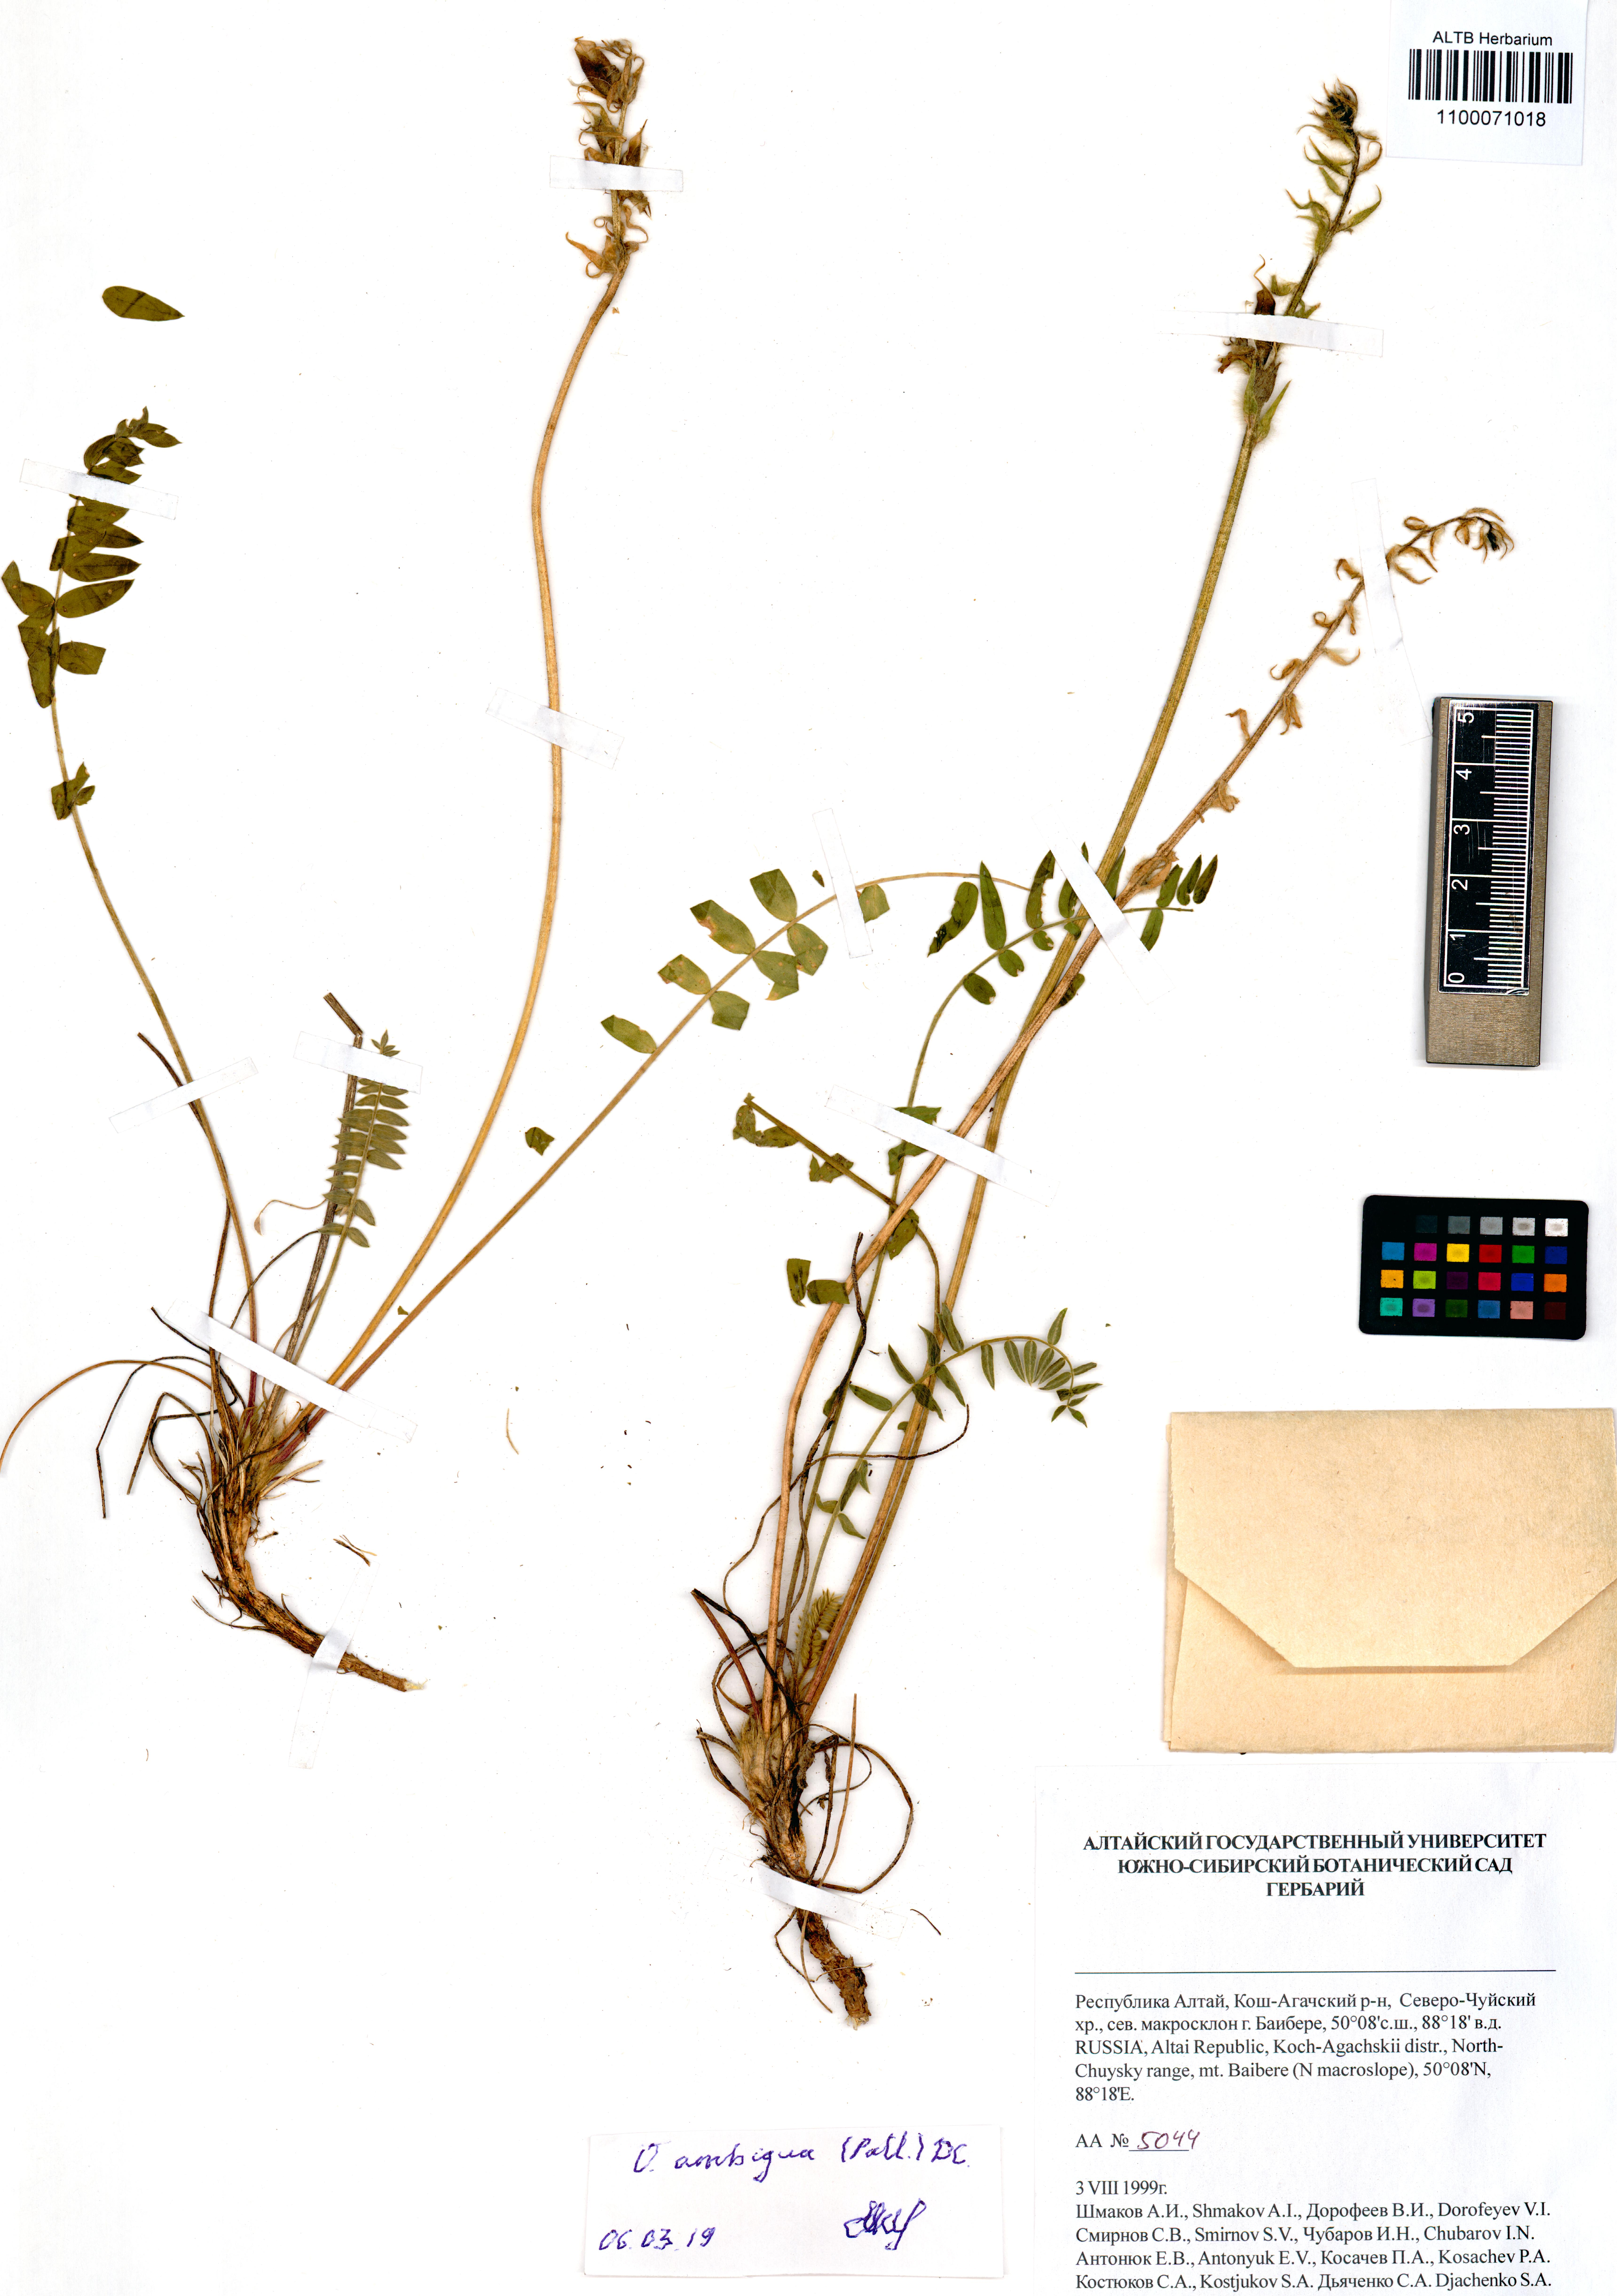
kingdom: Plantae
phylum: Tracheophyta
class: Magnoliopsida
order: Fabales
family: Fabaceae
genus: Oxytropis
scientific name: Oxytropis ambigua
